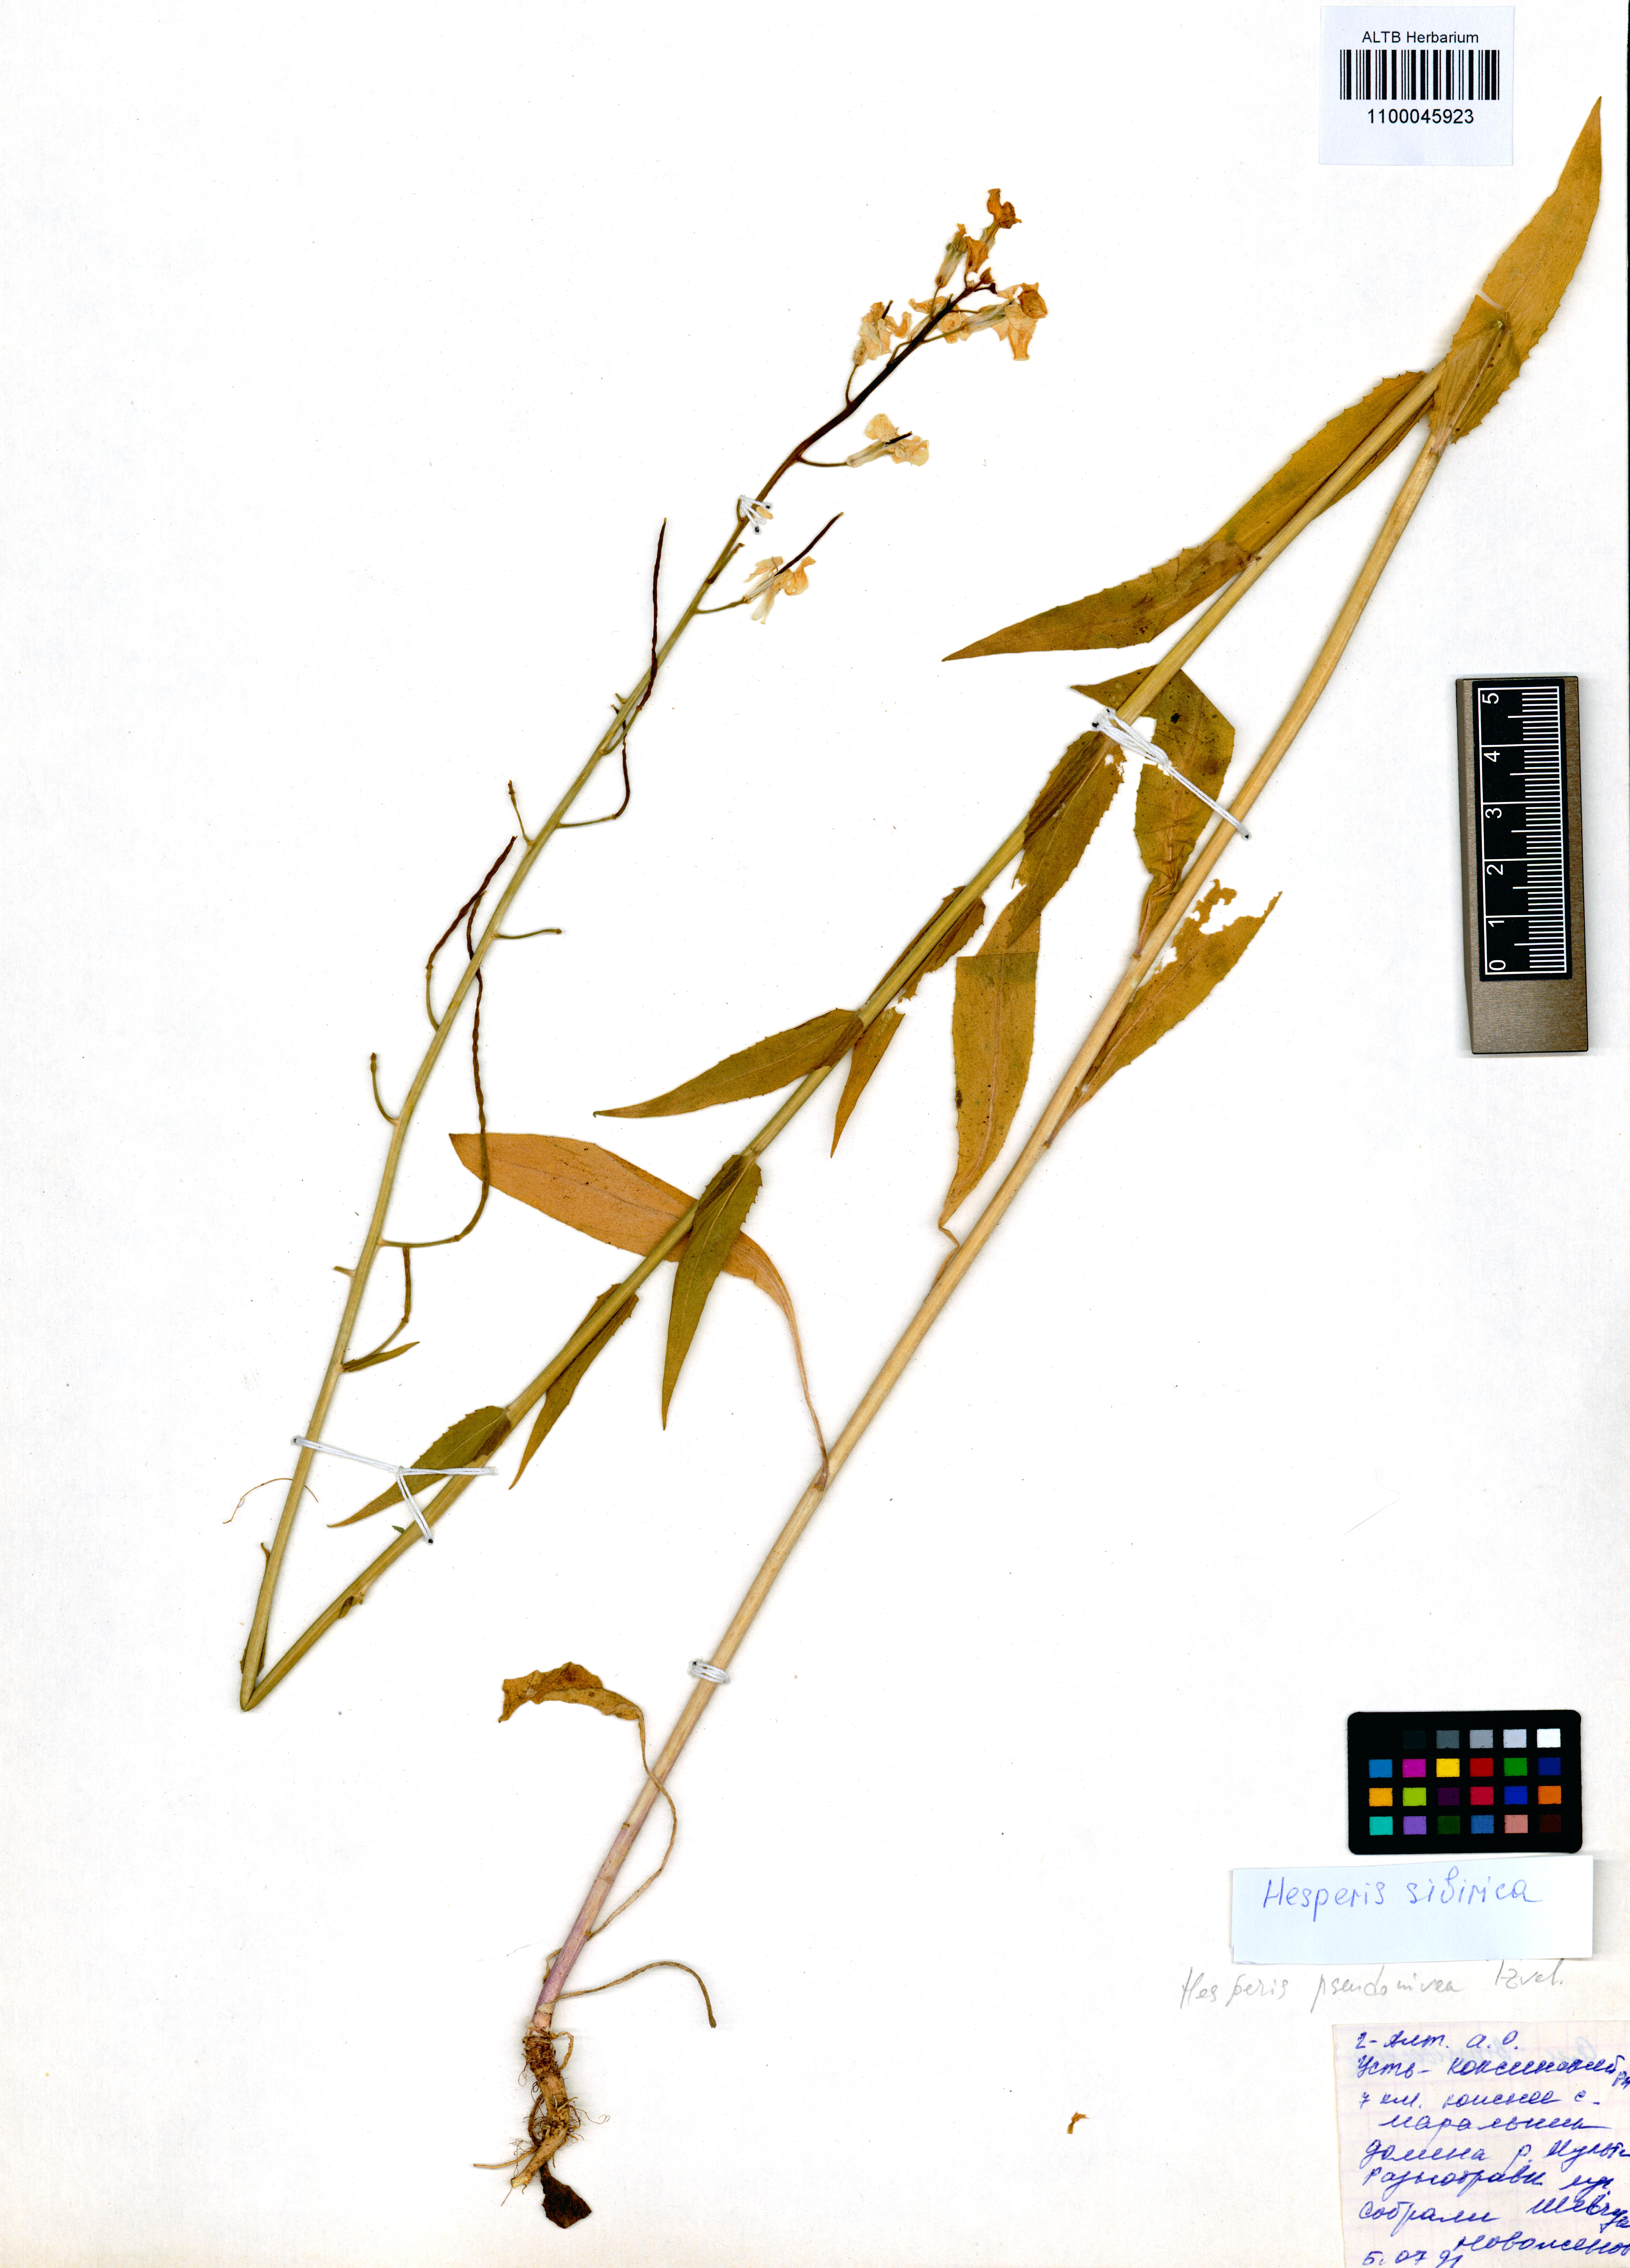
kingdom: Plantae
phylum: Tracheophyta
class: Magnoliopsida
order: Brassicales
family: Brassicaceae
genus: Hesperis
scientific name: Hesperis sibirica
